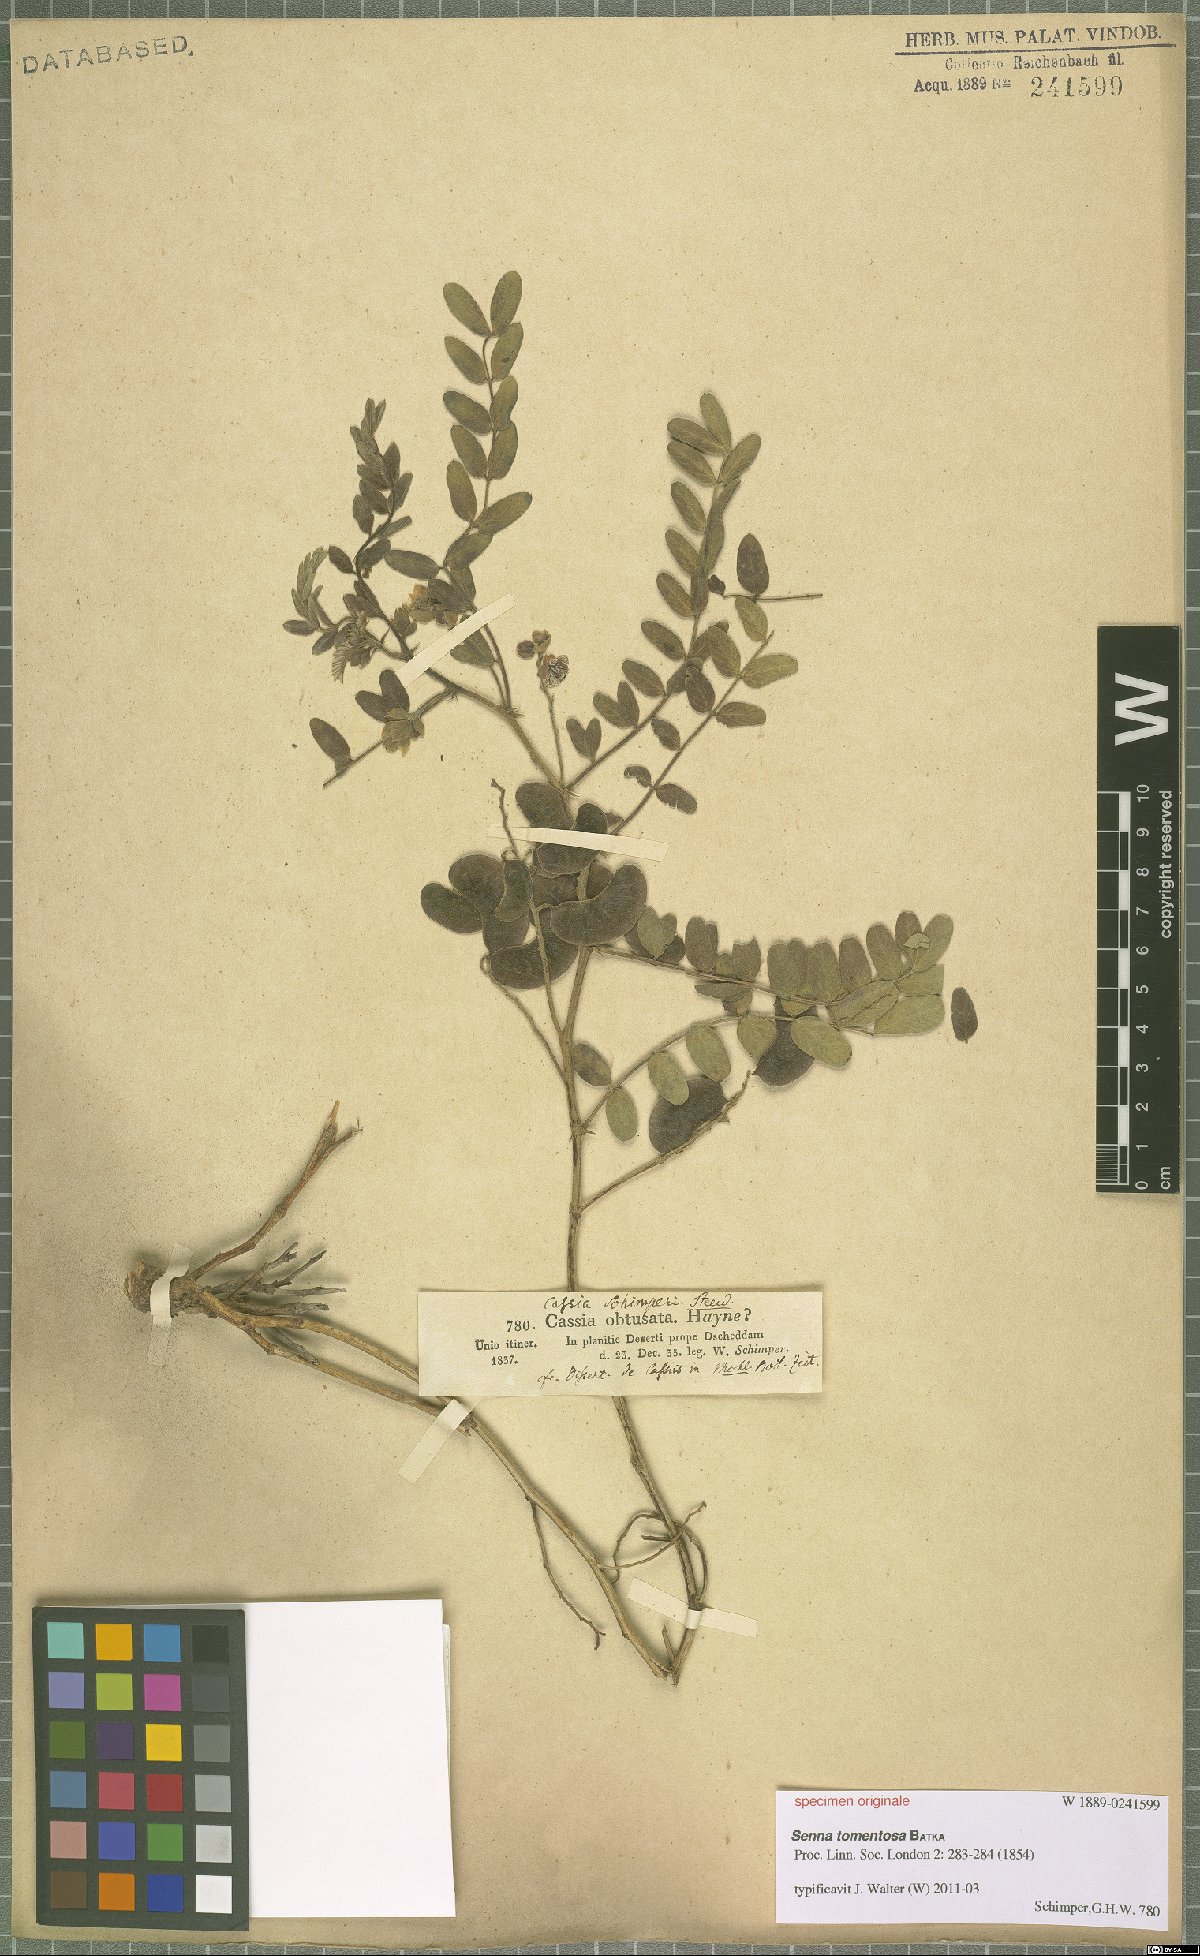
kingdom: Plantae
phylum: Tracheophyta
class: Magnoliopsida
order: Fabales
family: Fabaceae
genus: Senna
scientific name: Senna holosericea
